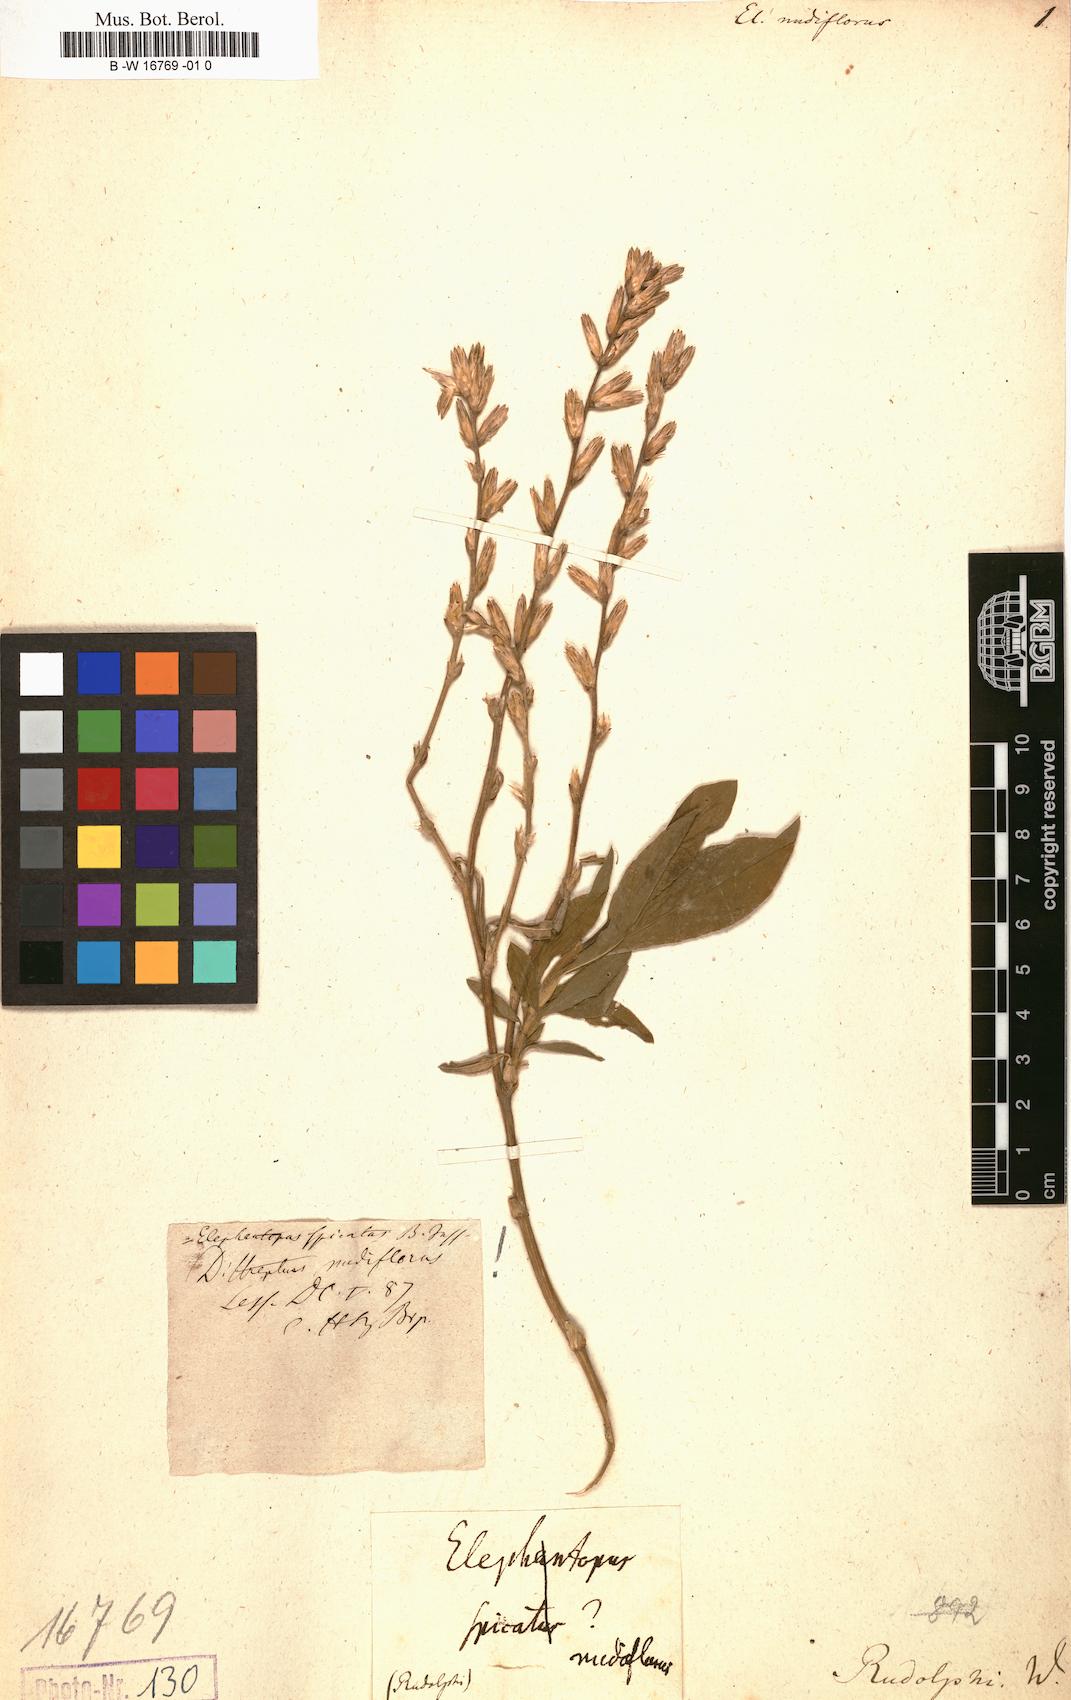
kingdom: Plantae
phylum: Tracheophyta
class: Magnoliopsida
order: Asterales
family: Asteraceae
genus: Orthopappus
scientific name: Orthopappus angustifolius
